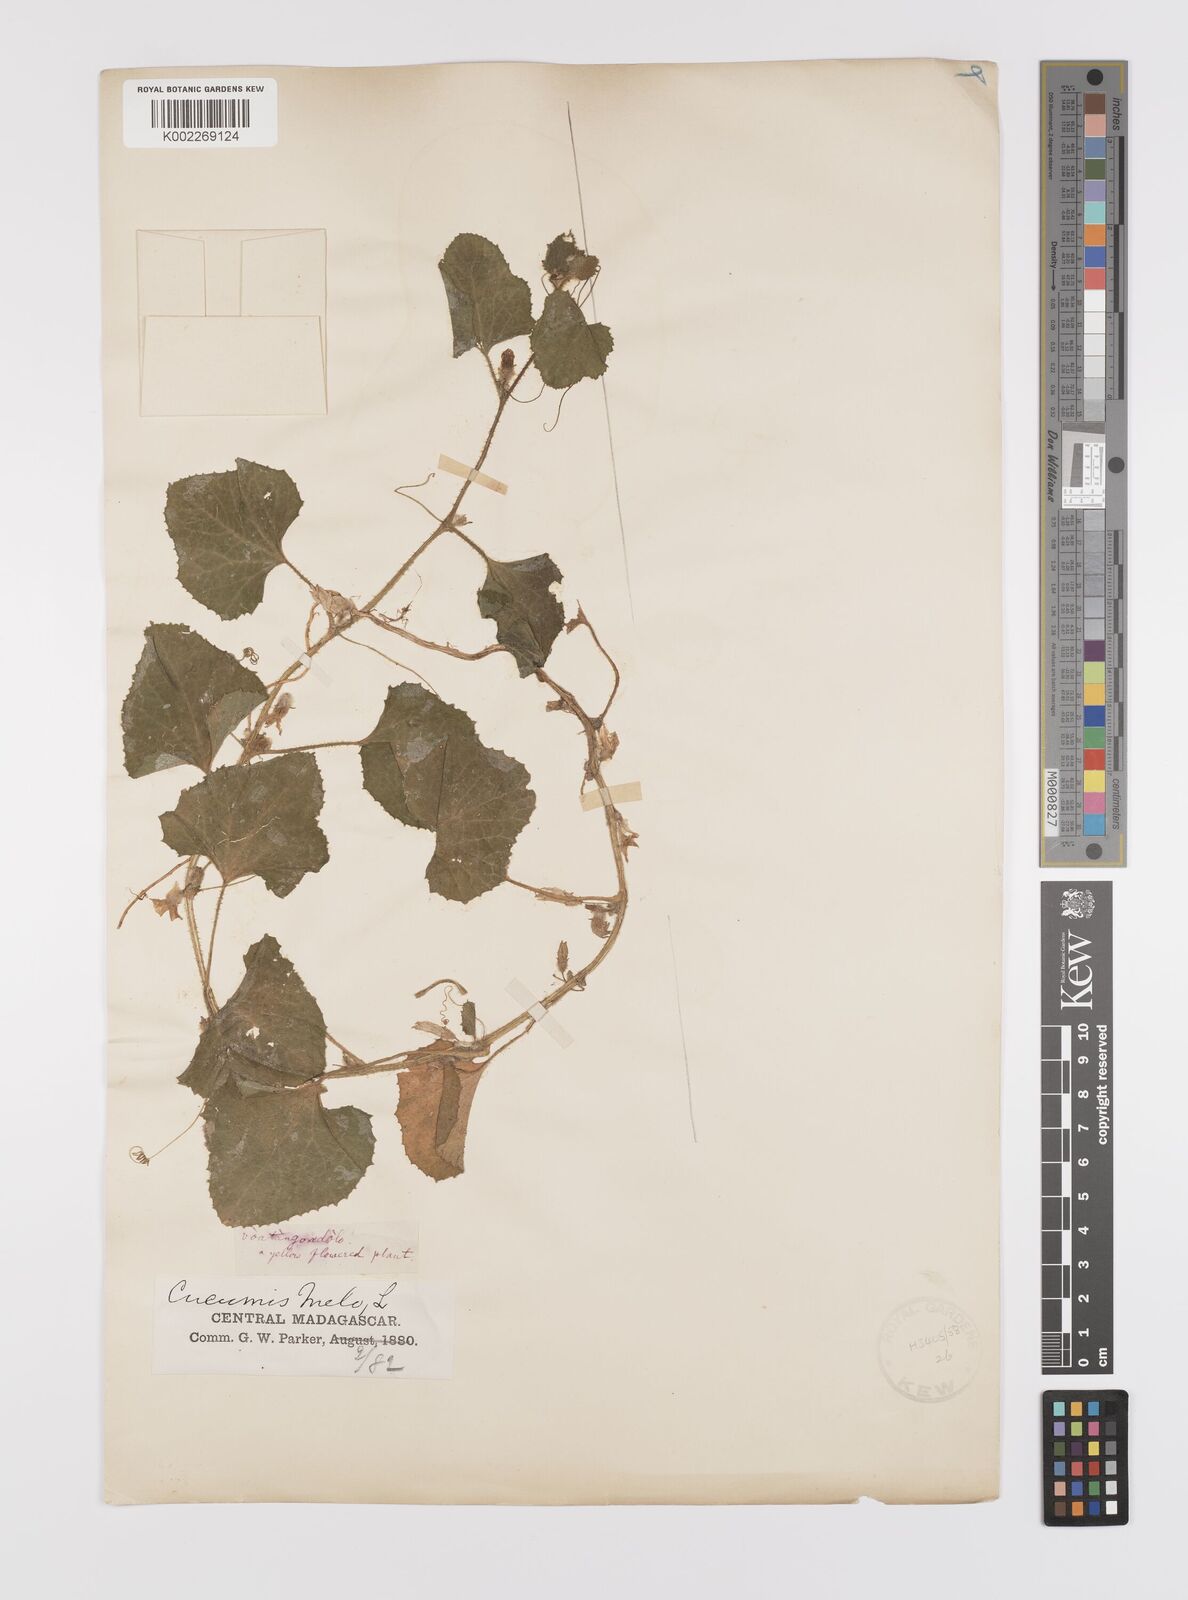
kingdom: Plantae
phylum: Tracheophyta
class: Magnoliopsida
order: Cucurbitales
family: Cucurbitaceae
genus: Cucumis
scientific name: Cucumis melo
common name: Melon
